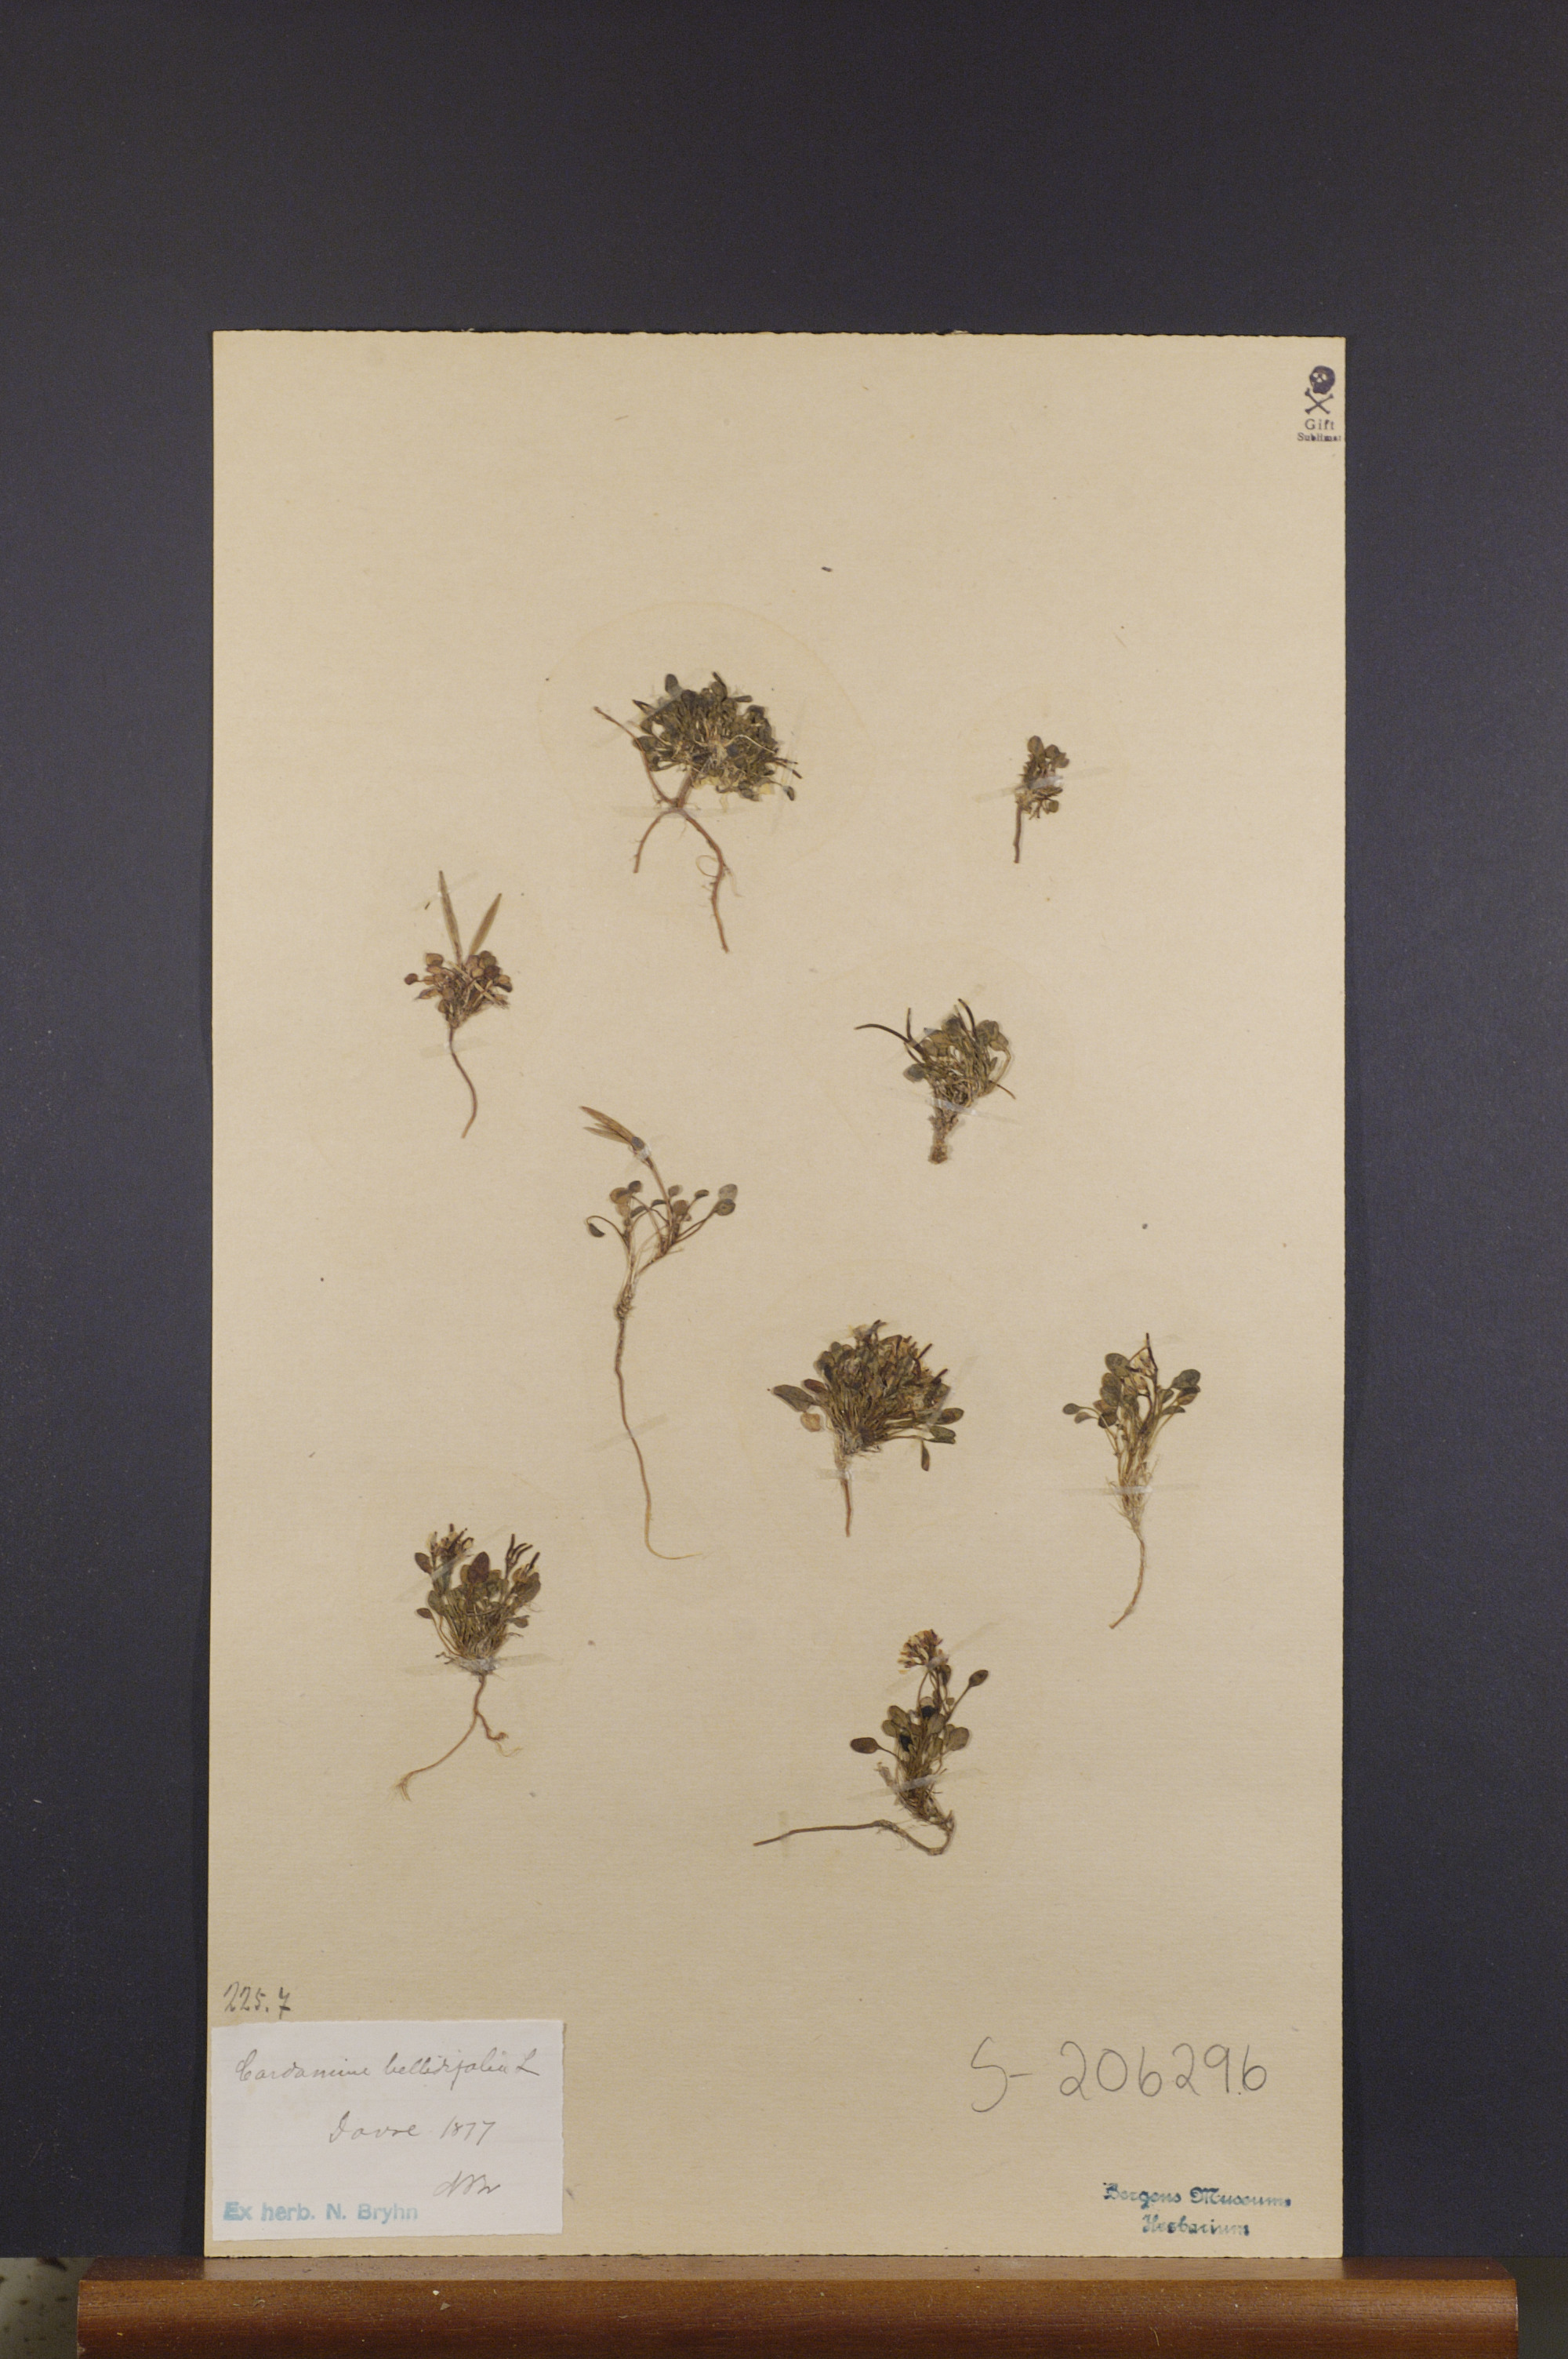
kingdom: Plantae
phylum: Tracheophyta
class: Magnoliopsida
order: Brassicales
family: Brassicaceae
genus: Cardamine
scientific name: Cardamine bellidifolia
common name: Alpine bittercress
